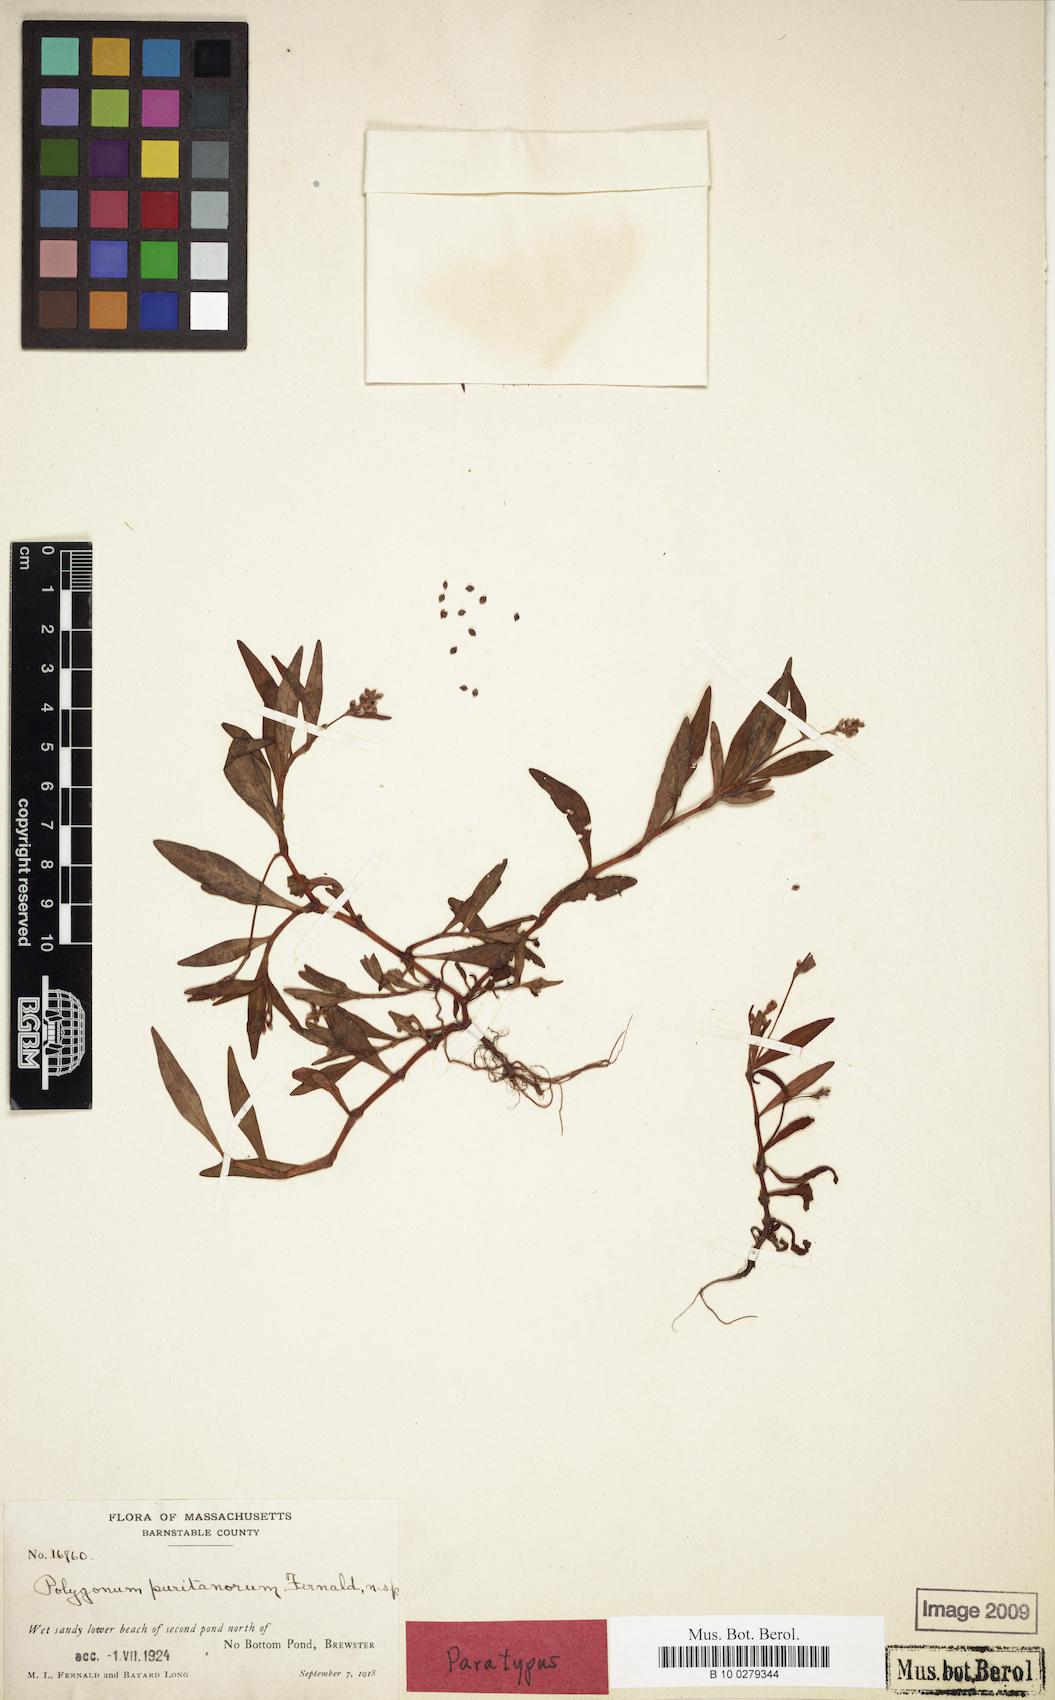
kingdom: Plantae
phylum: Tracheophyta
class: Magnoliopsida
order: Caryophyllales
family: Polygonaceae
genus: Persicaria
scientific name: Persicaria maculosa
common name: Redshank
